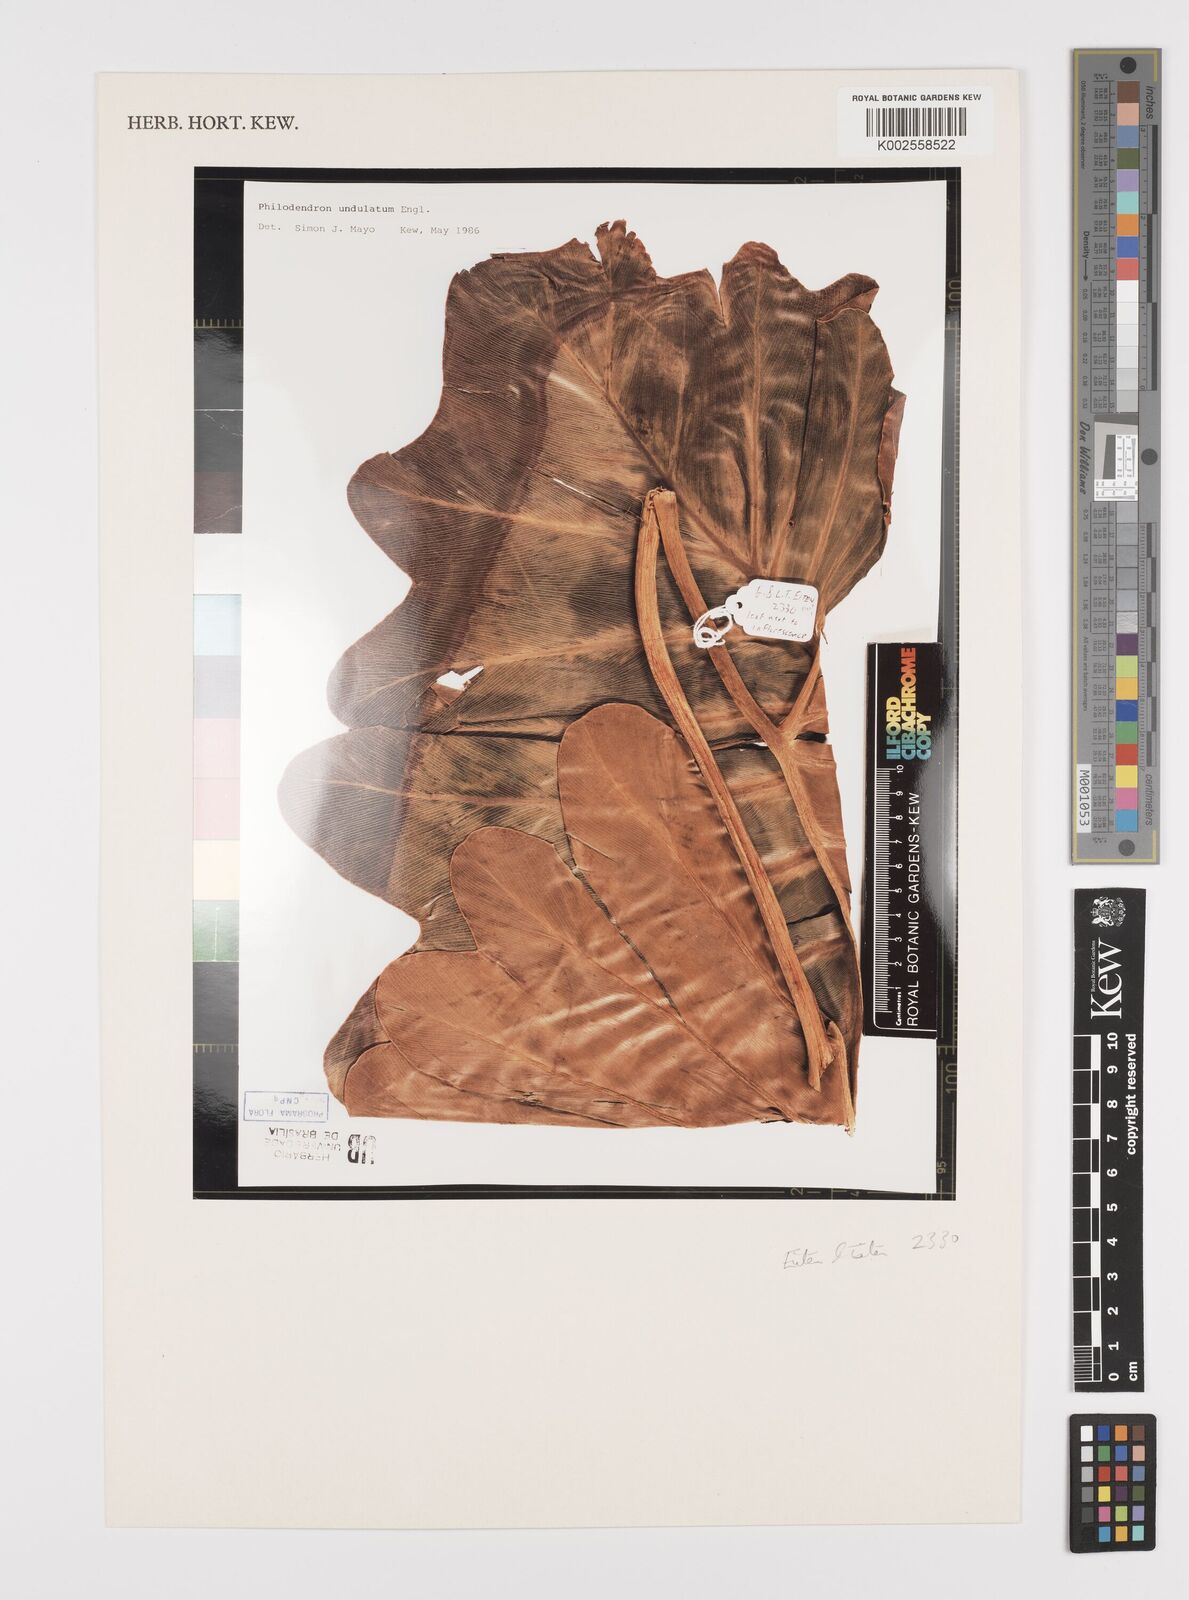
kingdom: Plantae
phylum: Tracheophyta
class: Liliopsida
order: Alismatales
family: Araceae
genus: Thaumatophyllum
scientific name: Thaumatophyllum undulatum
